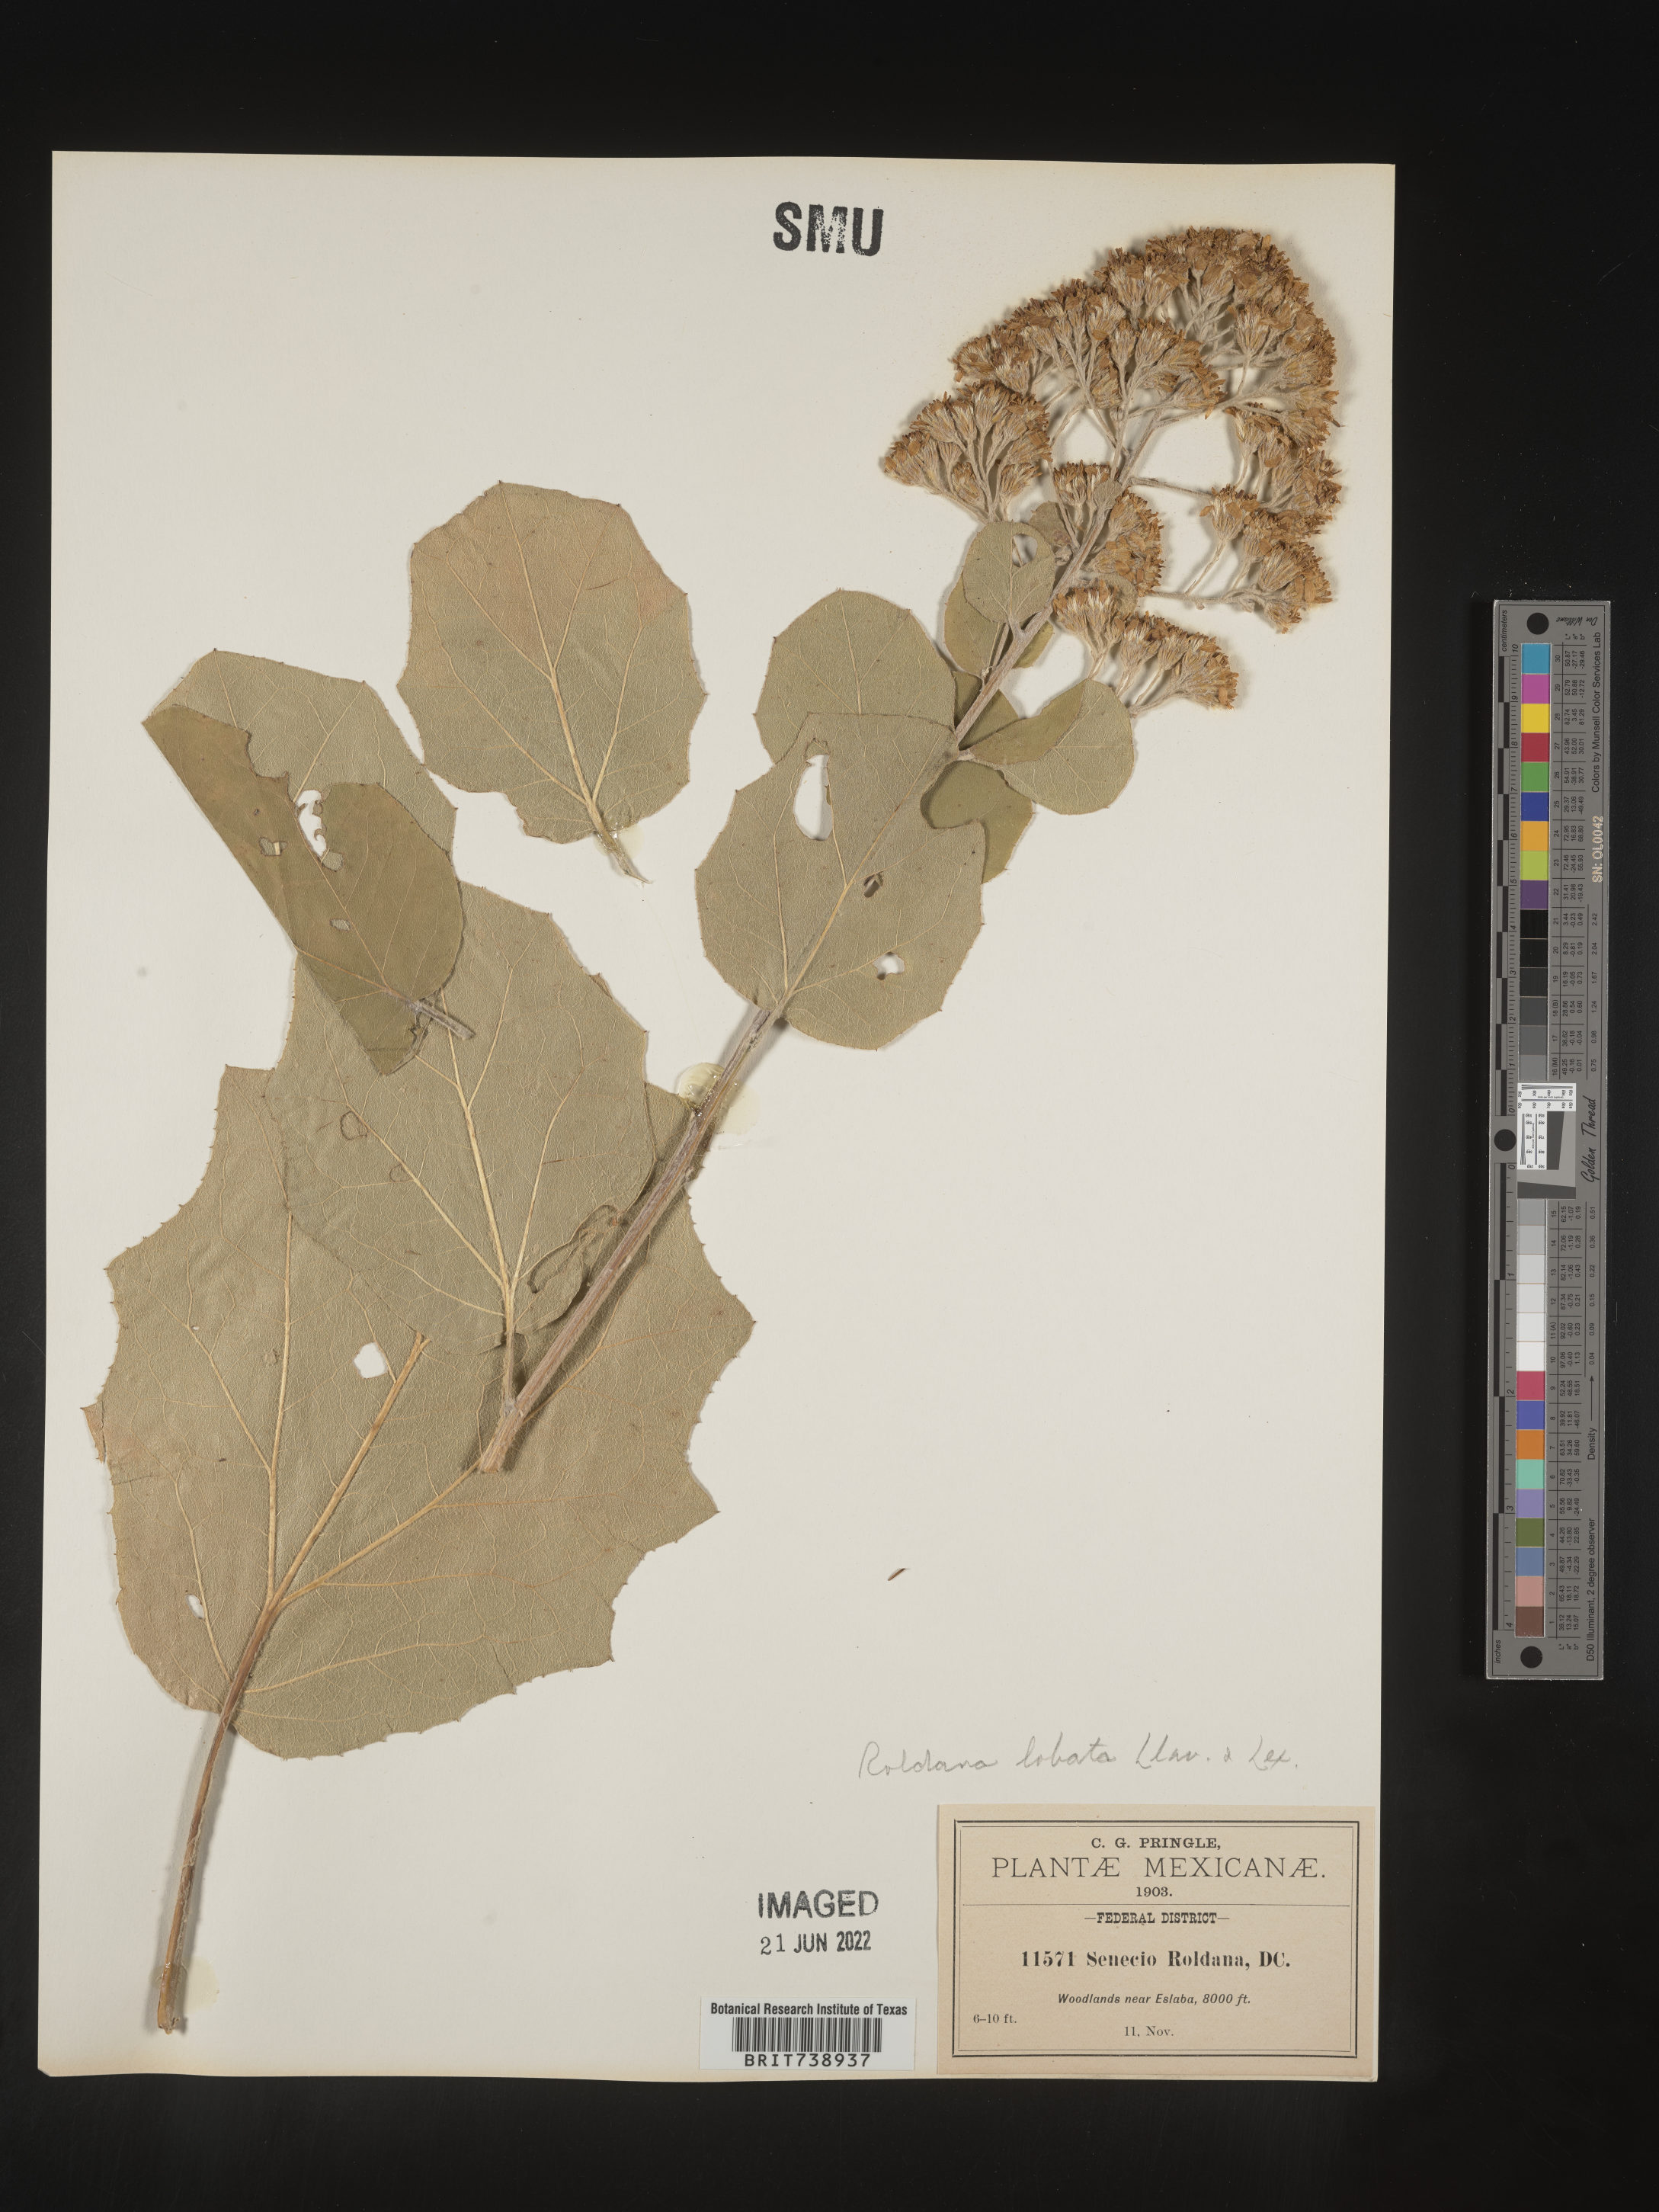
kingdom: Plantae
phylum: Tracheophyta
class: Magnoliopsida
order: Asterales
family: Asteraceae
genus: Roldana
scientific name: Roldana
